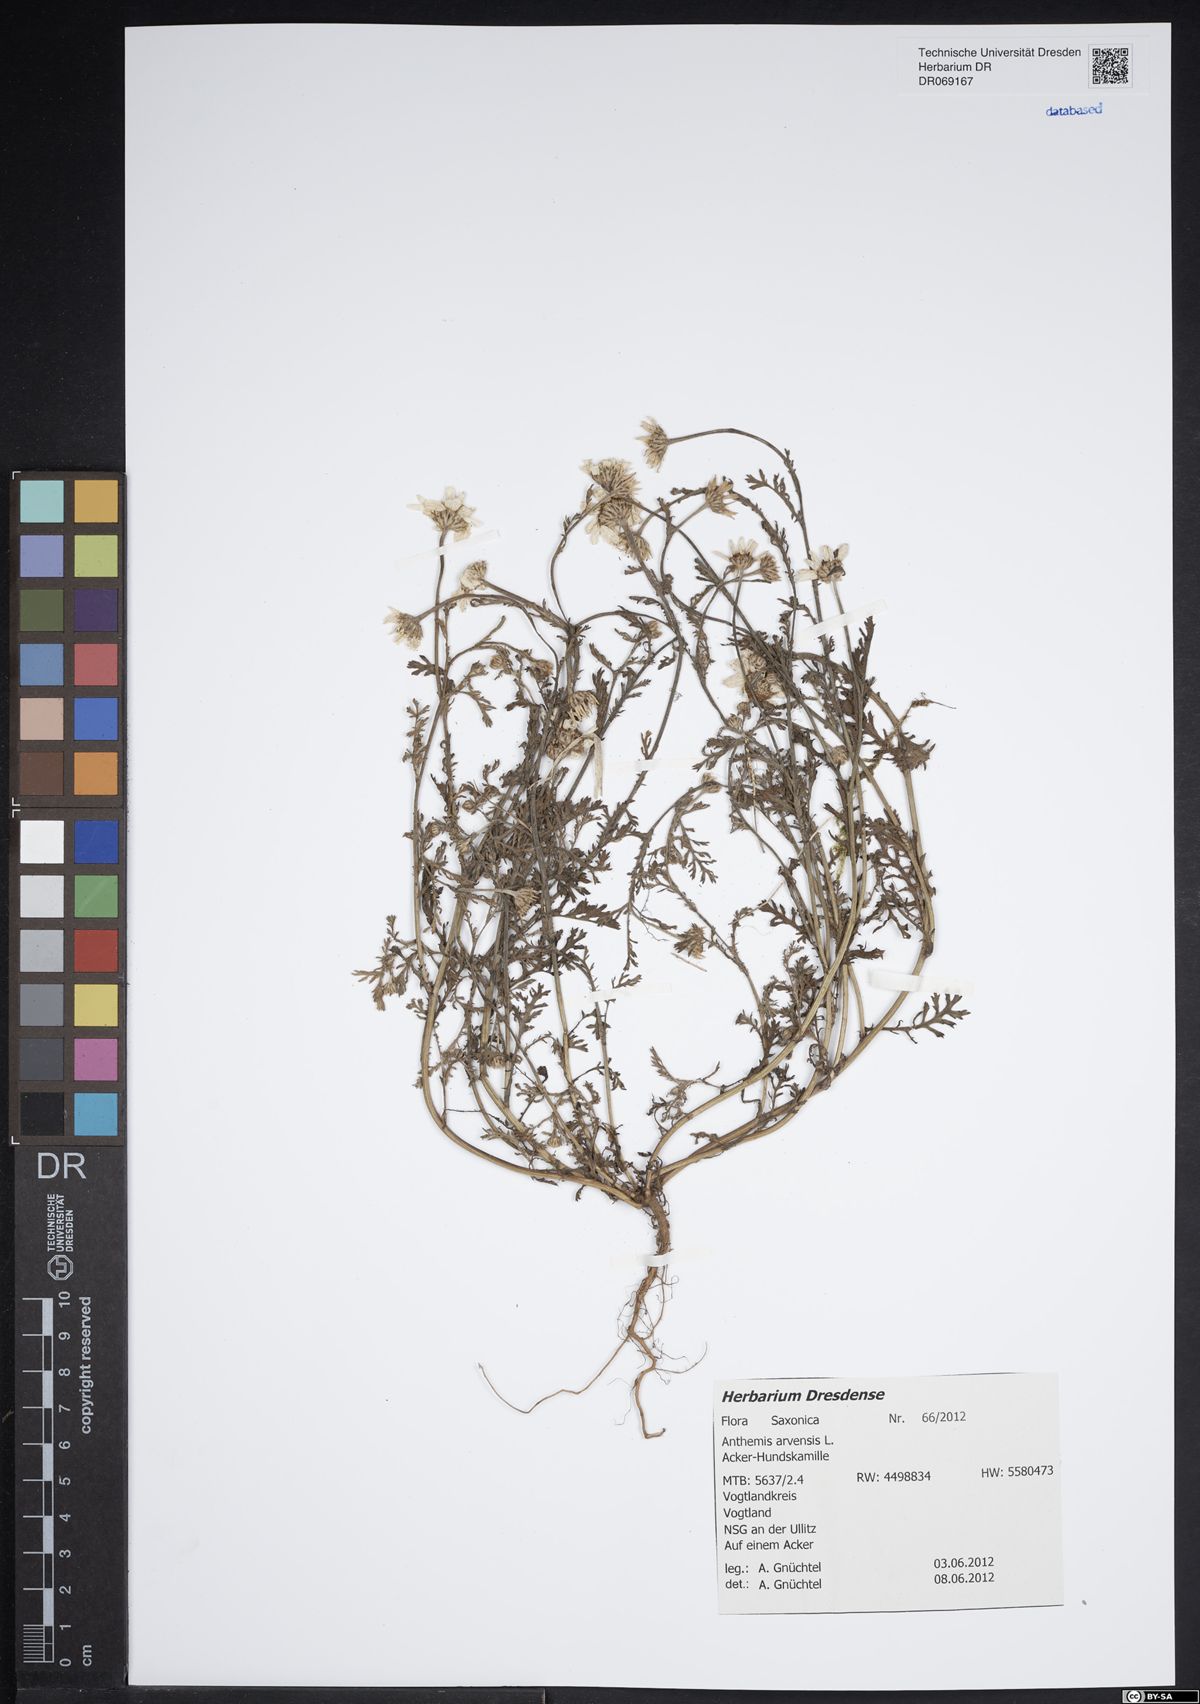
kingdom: Plantae
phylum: Tracheophyta
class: Magnoliopsida
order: Asterales
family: Asteraceae
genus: Anthemis
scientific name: Anthemis arvensis
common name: Corn chamomile
